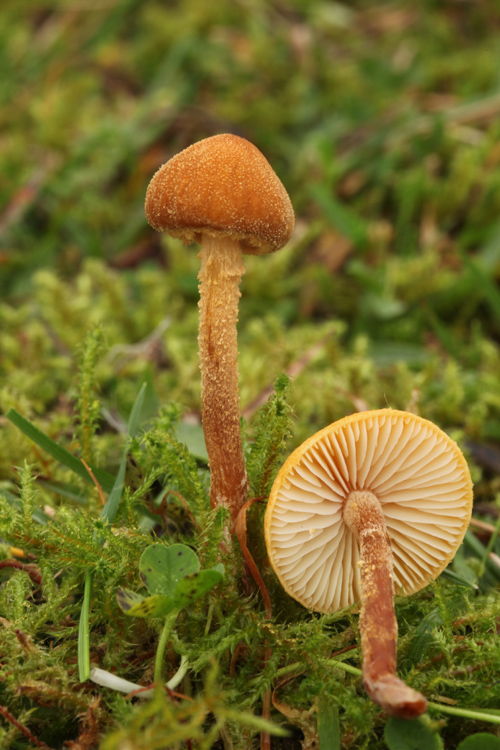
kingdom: Fungi
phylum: Basidiomycota
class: Agaricomycetes
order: Agaricales
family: Tricholomataceae
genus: Cystoderma
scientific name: Cystoderma jasonis
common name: gulkødet grynhat
